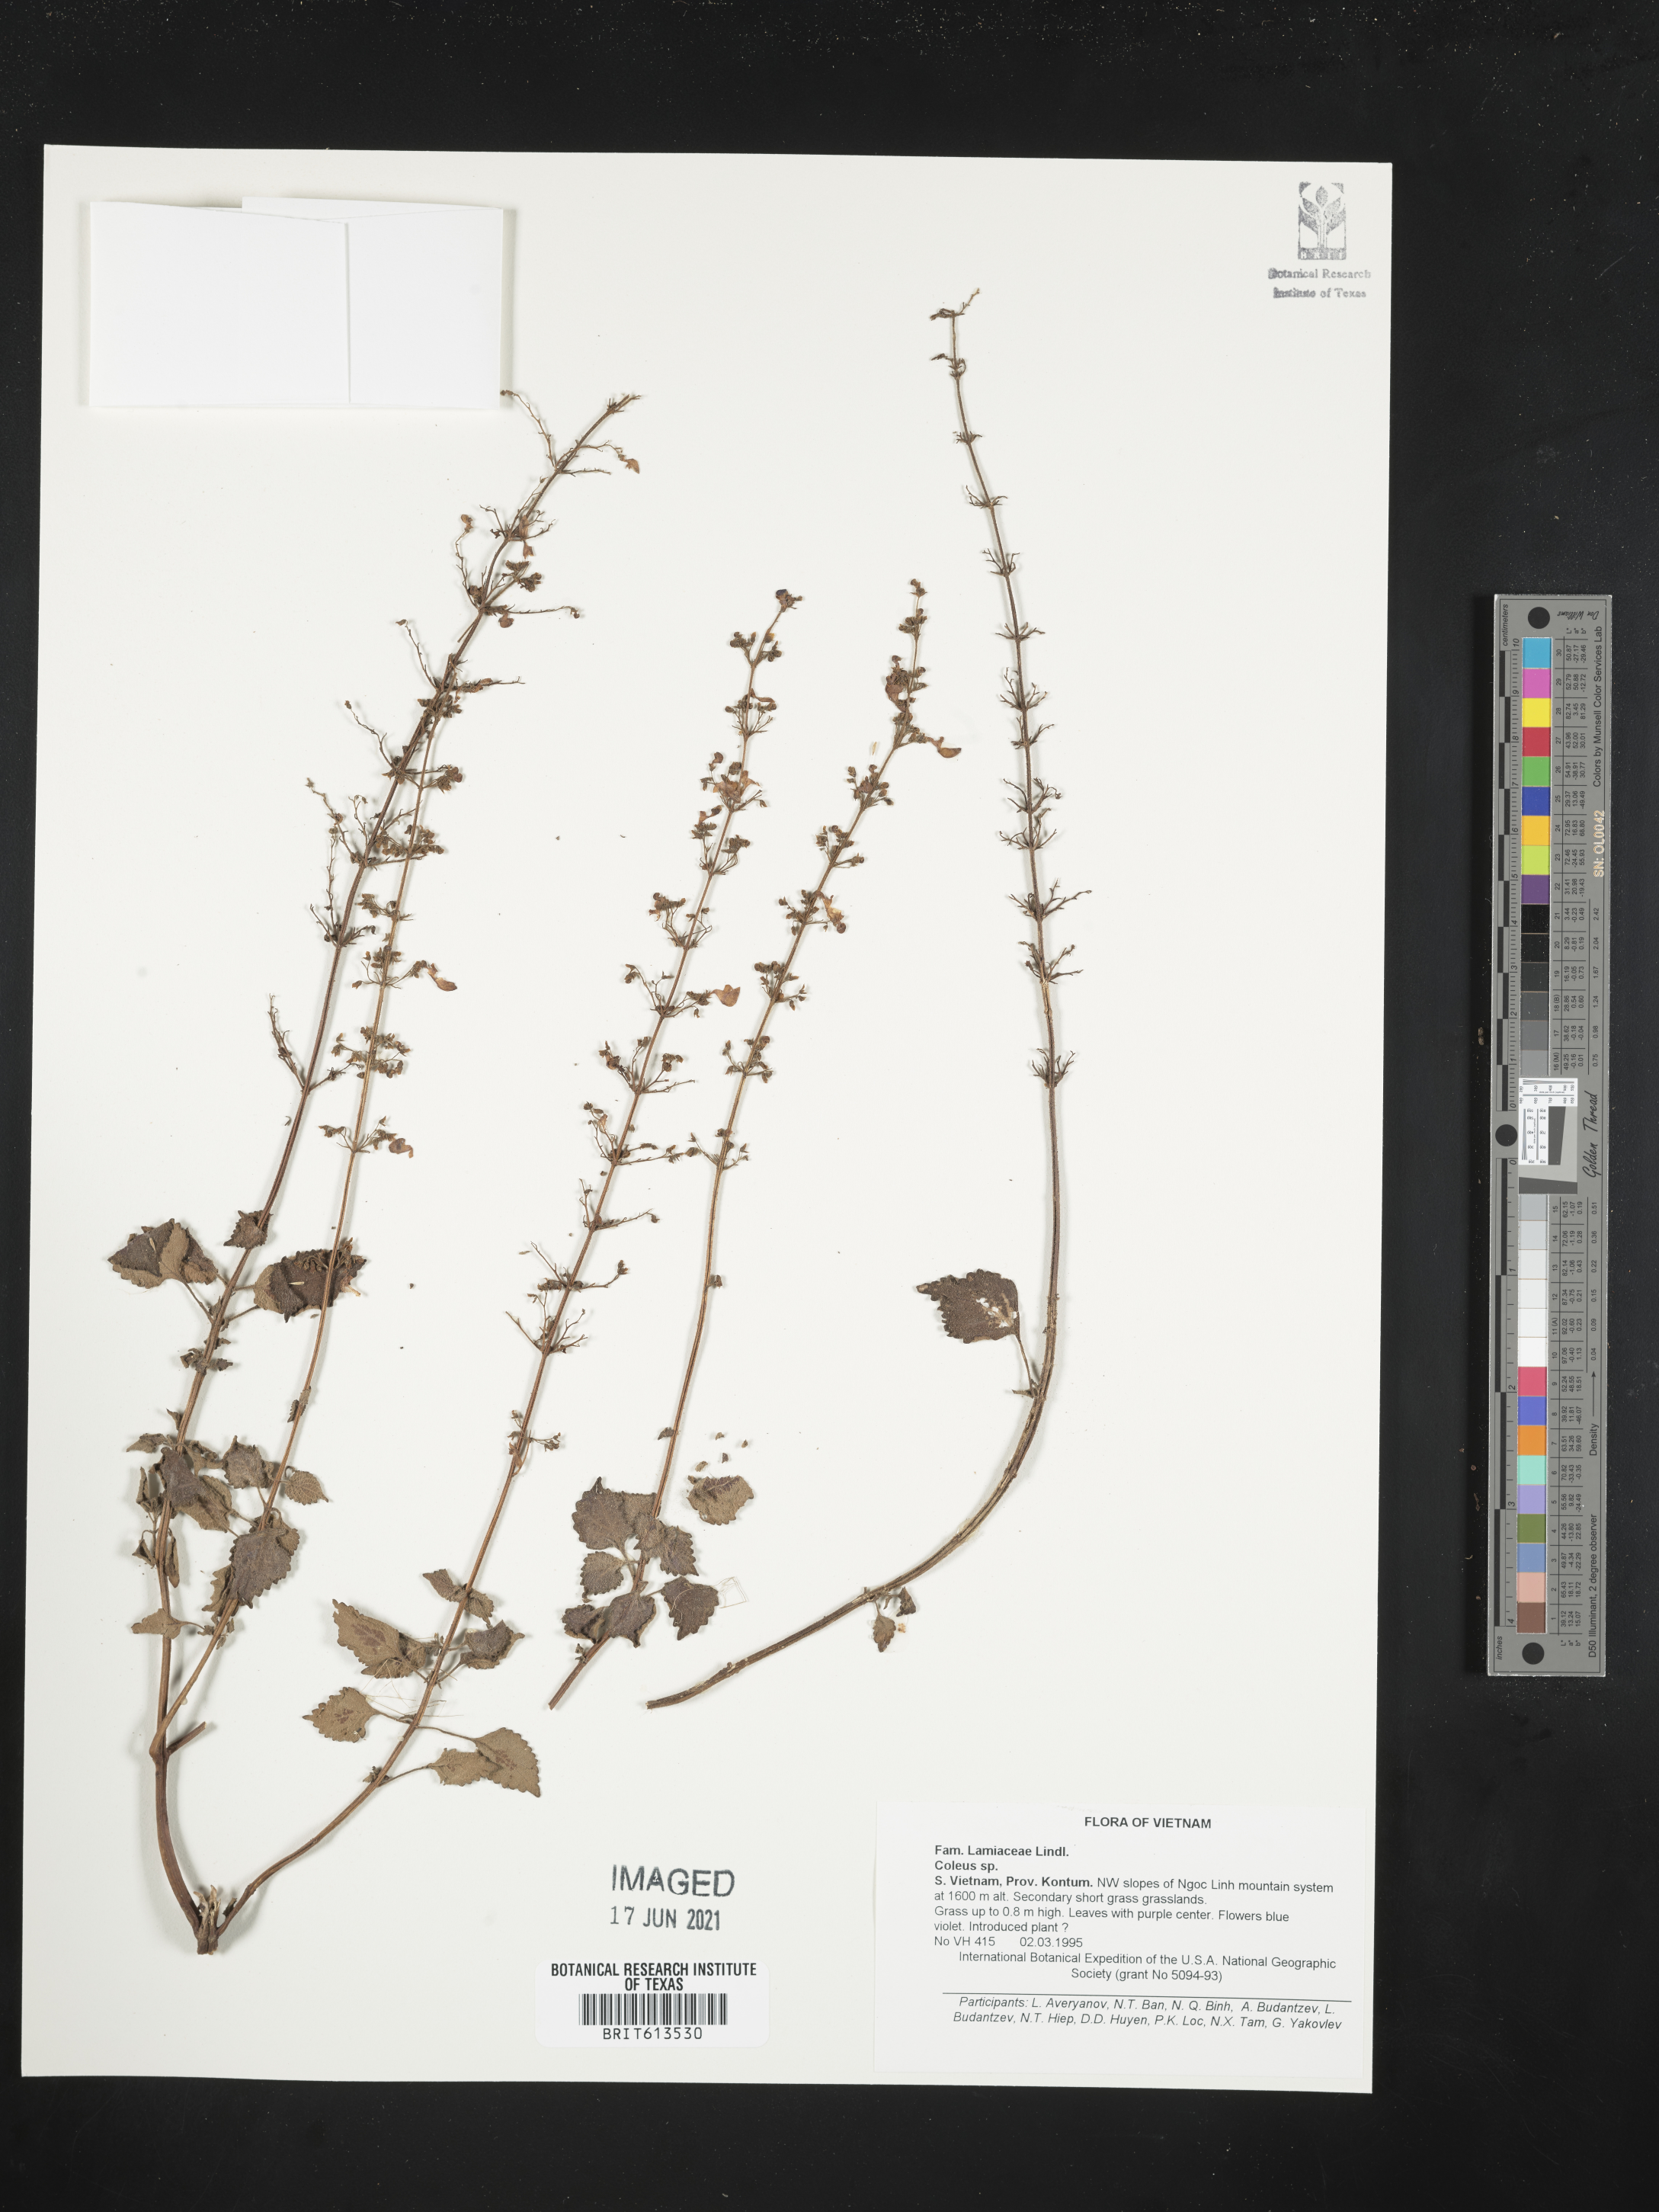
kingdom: Plantae
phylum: Tracheophyta
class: Magnoliopsida
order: Lamiales
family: Lamiaceae
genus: Coleus
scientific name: Coleus
